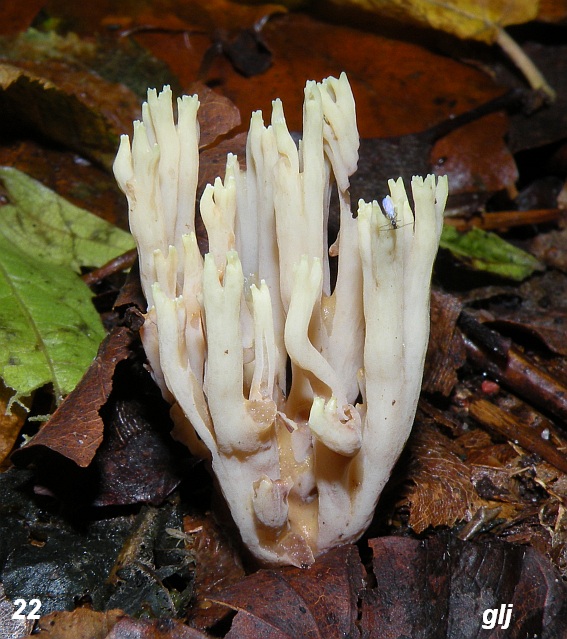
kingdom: Fungi
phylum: Basidiomycota
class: Agaricomycetes
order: Gomphales
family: Gomphaceae
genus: Ramaria
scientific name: Ramaria stricta
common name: rank koralsvamp
